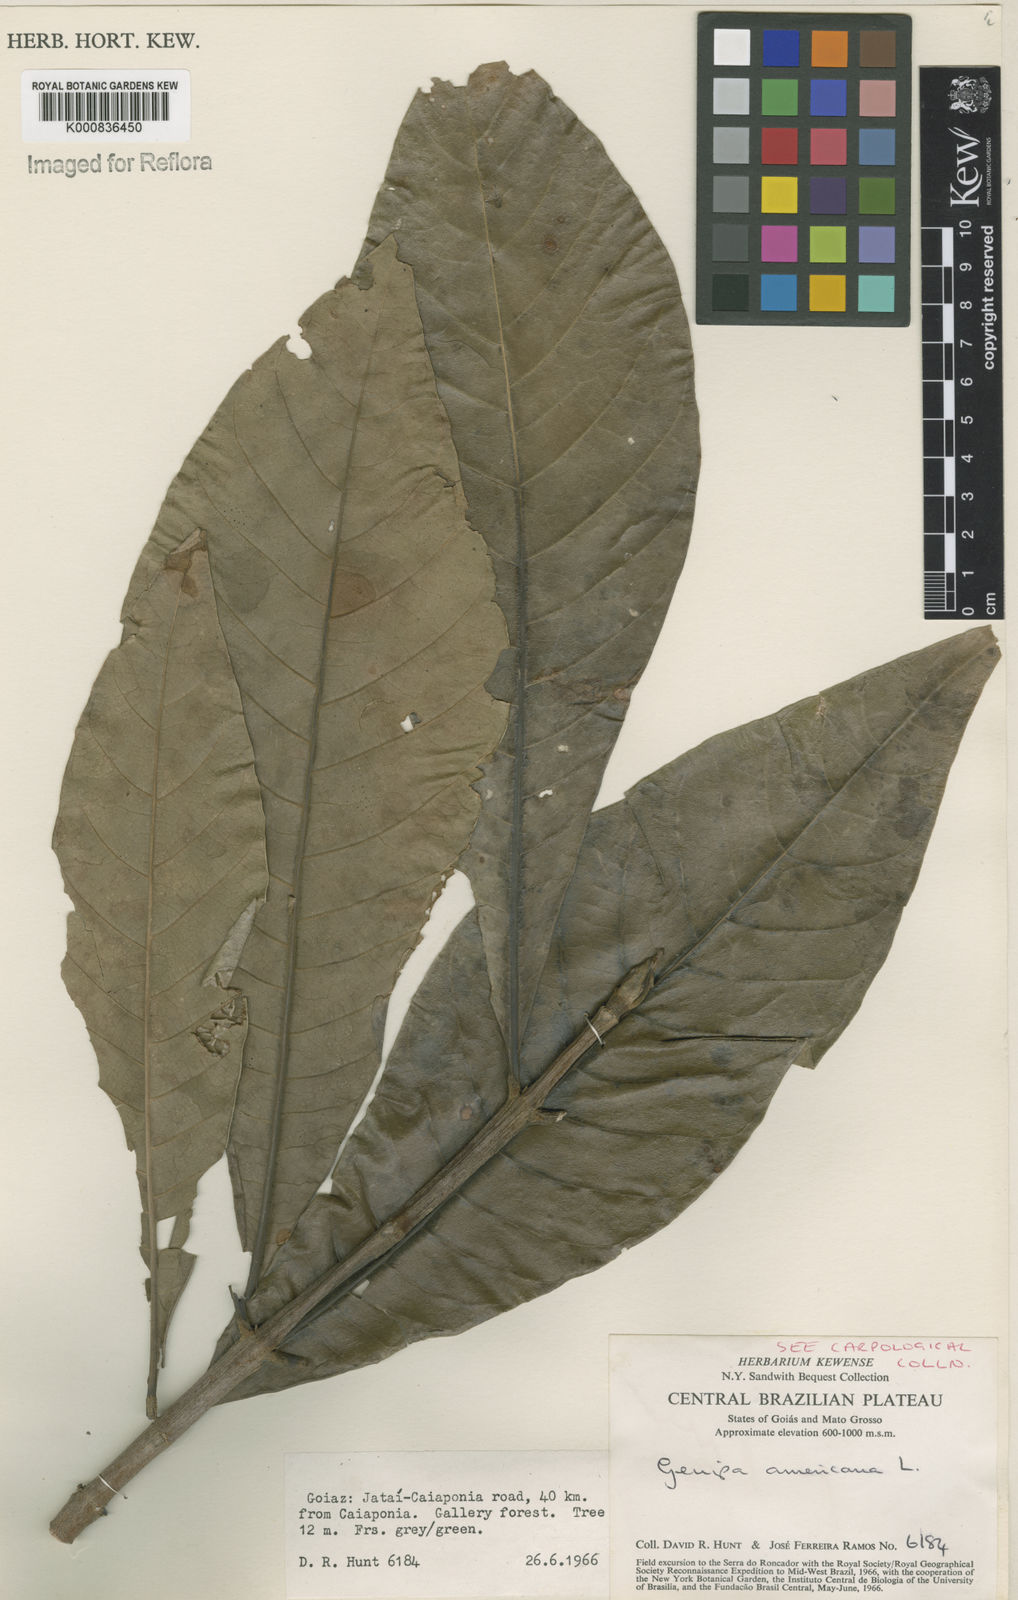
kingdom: Plantae
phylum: Tracheophyta
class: Magnoliopsida
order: Gentianales
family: Rubiaceae
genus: Genipa
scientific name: Genipa americana
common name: Genipap
